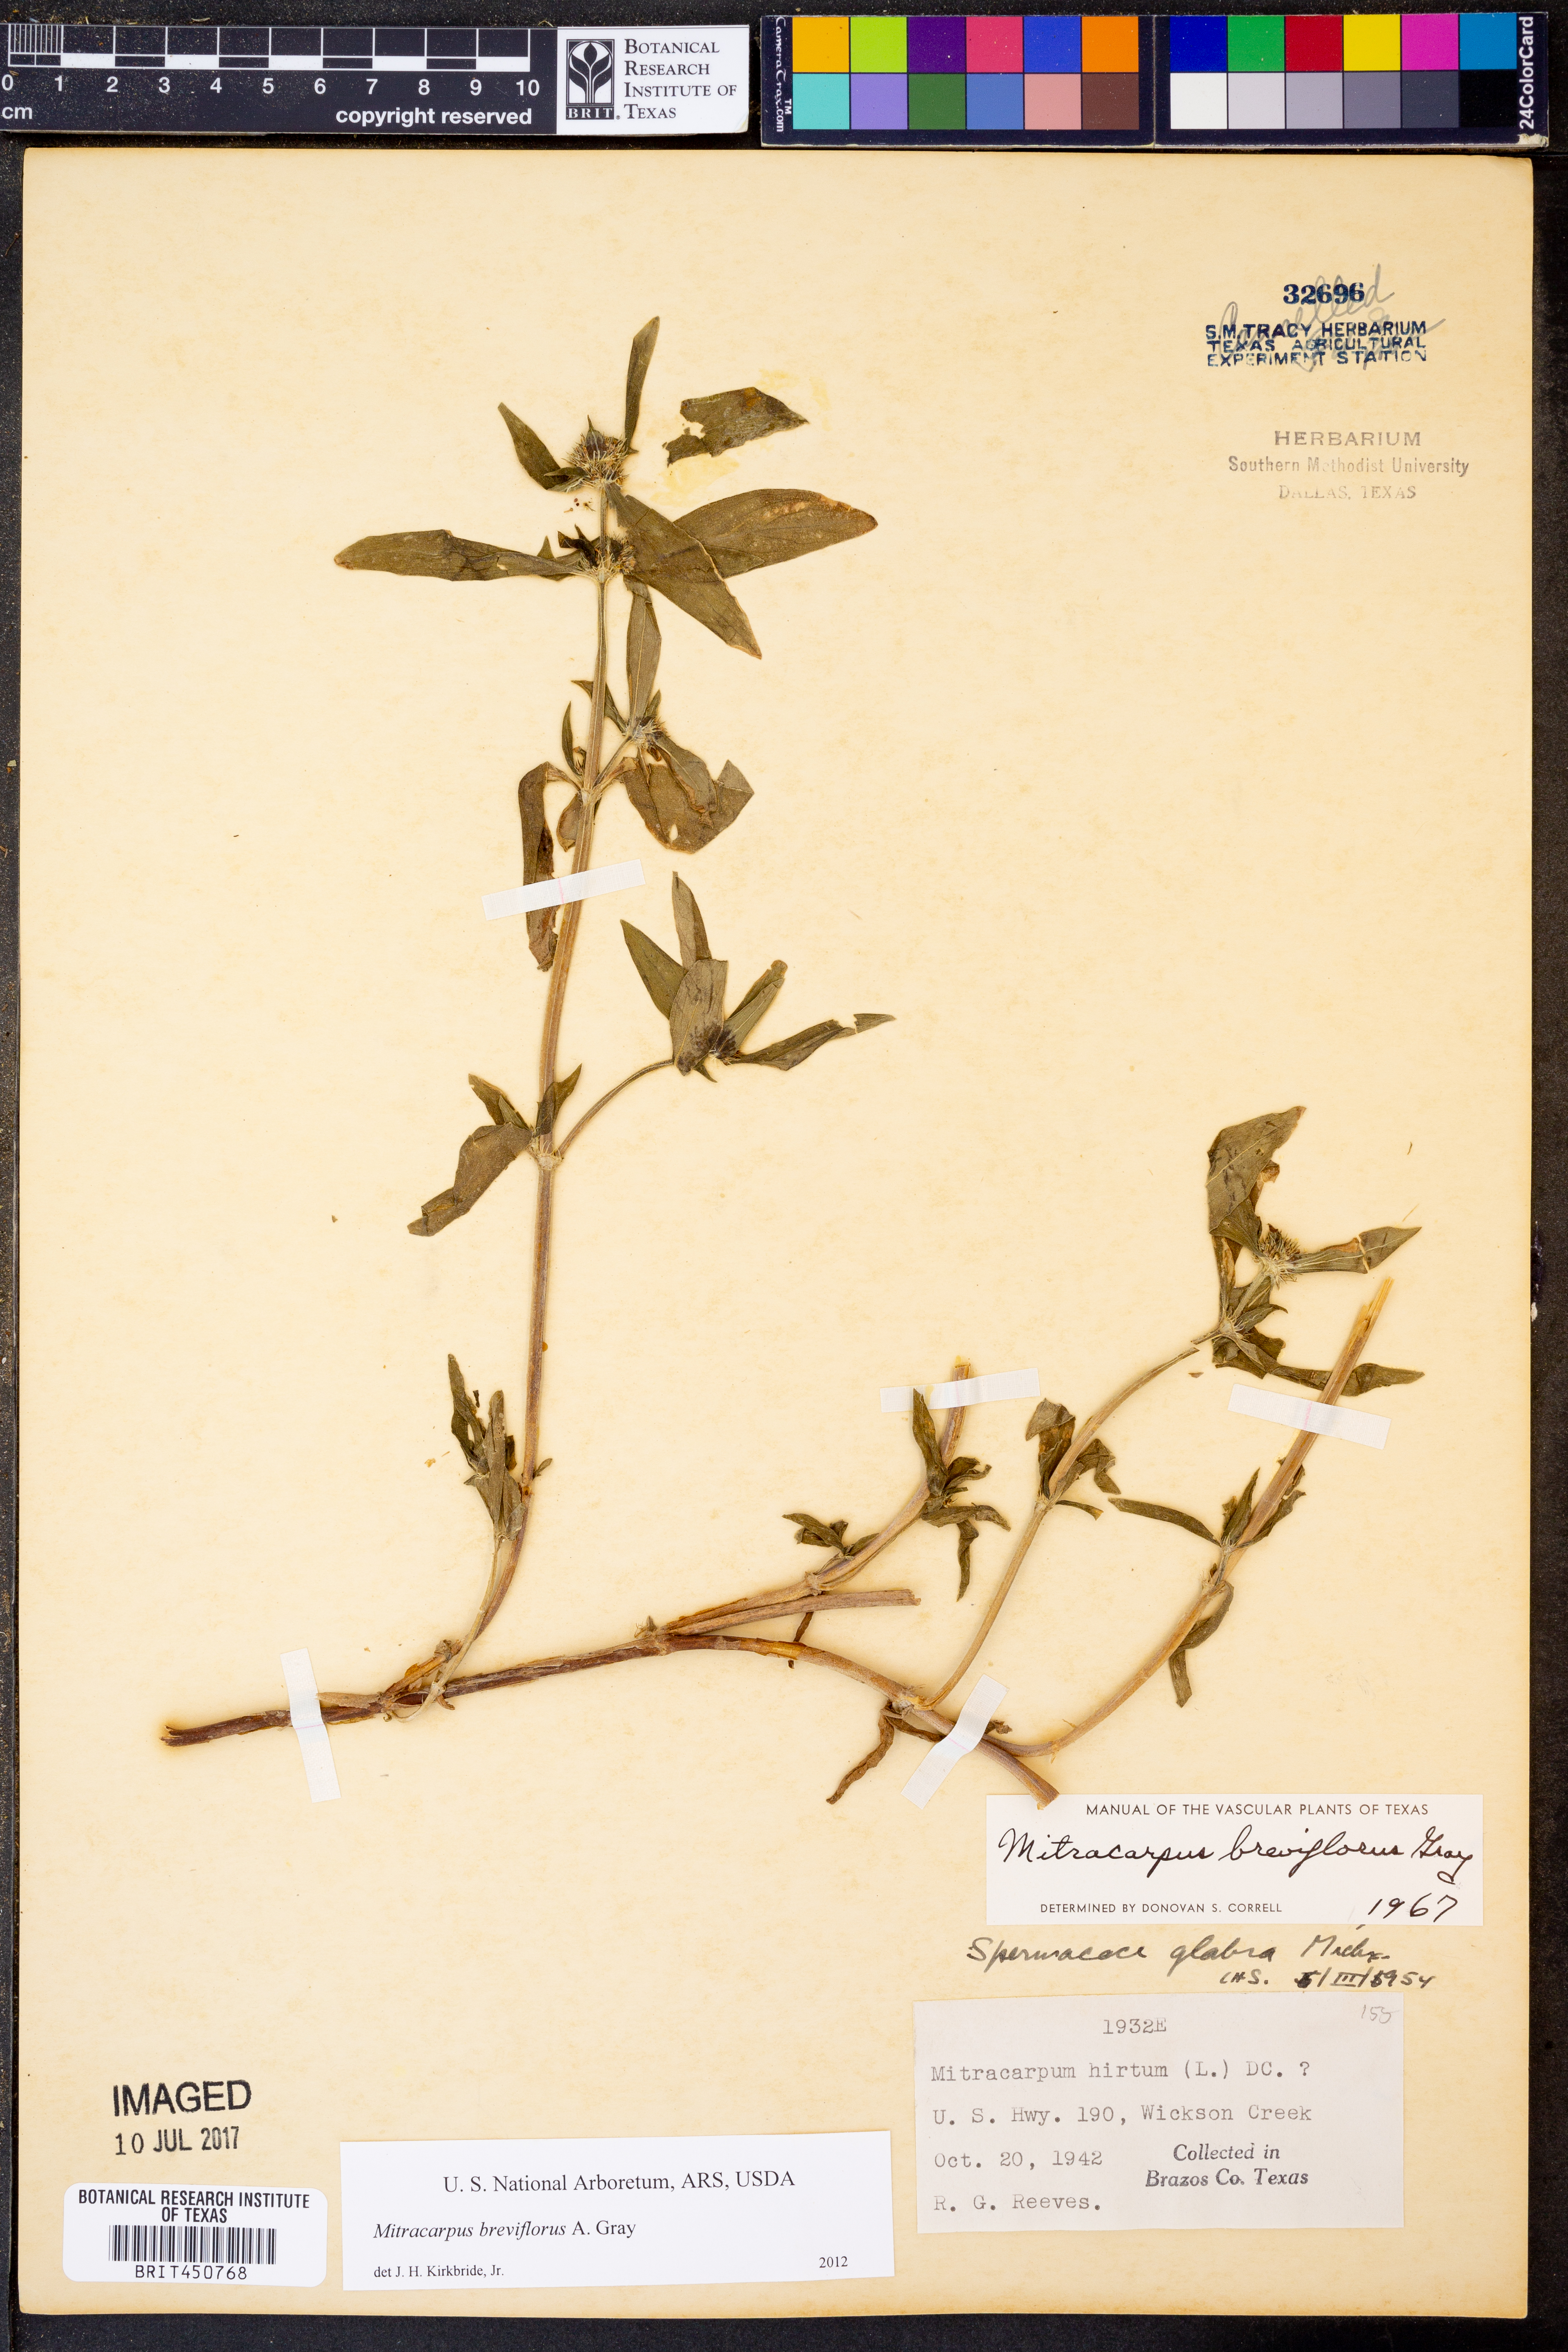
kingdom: Plantae
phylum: Tracheophyta
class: Magnoliopsida
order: Gentianales
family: Rubiaceae
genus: Mitracarpus
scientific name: Mitracarpus breviflorus
